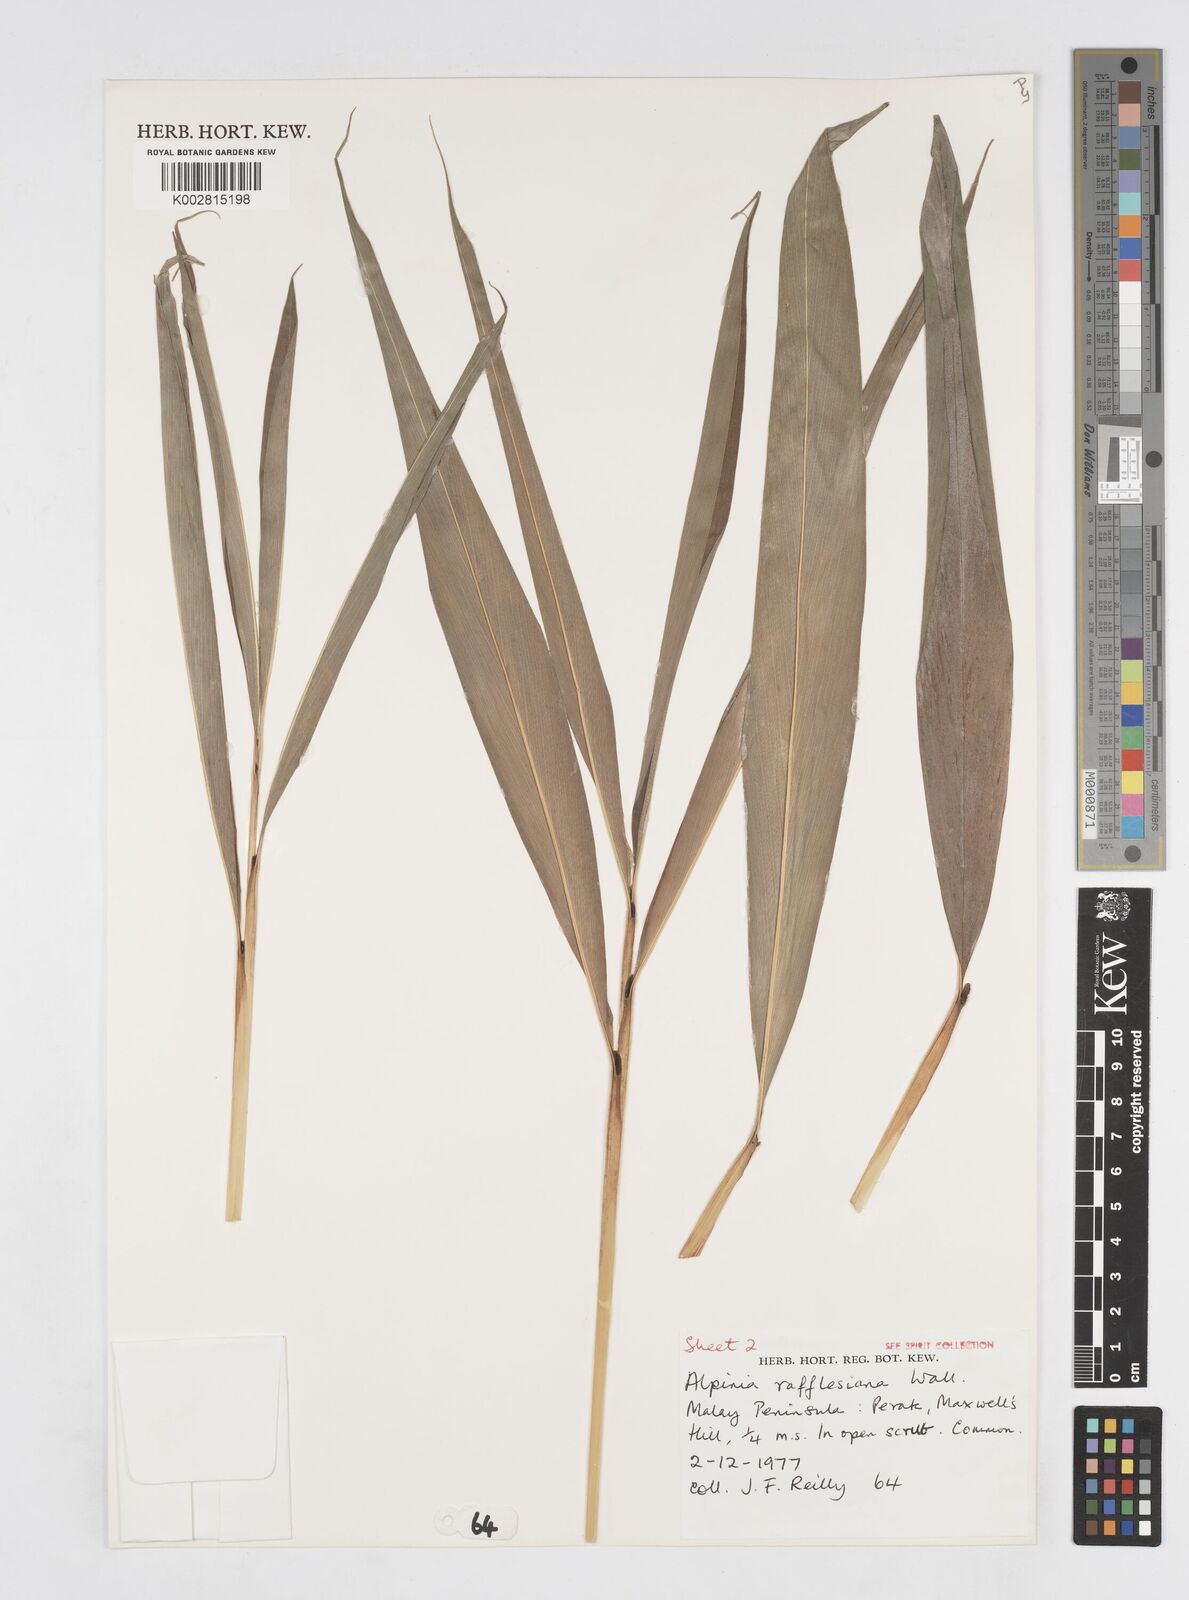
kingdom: Plantae
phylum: Tracheophyta
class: Liliopsida
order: Zingiberales
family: Zingiberaceae
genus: Alpinia
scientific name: Alpinia rafflesiana
